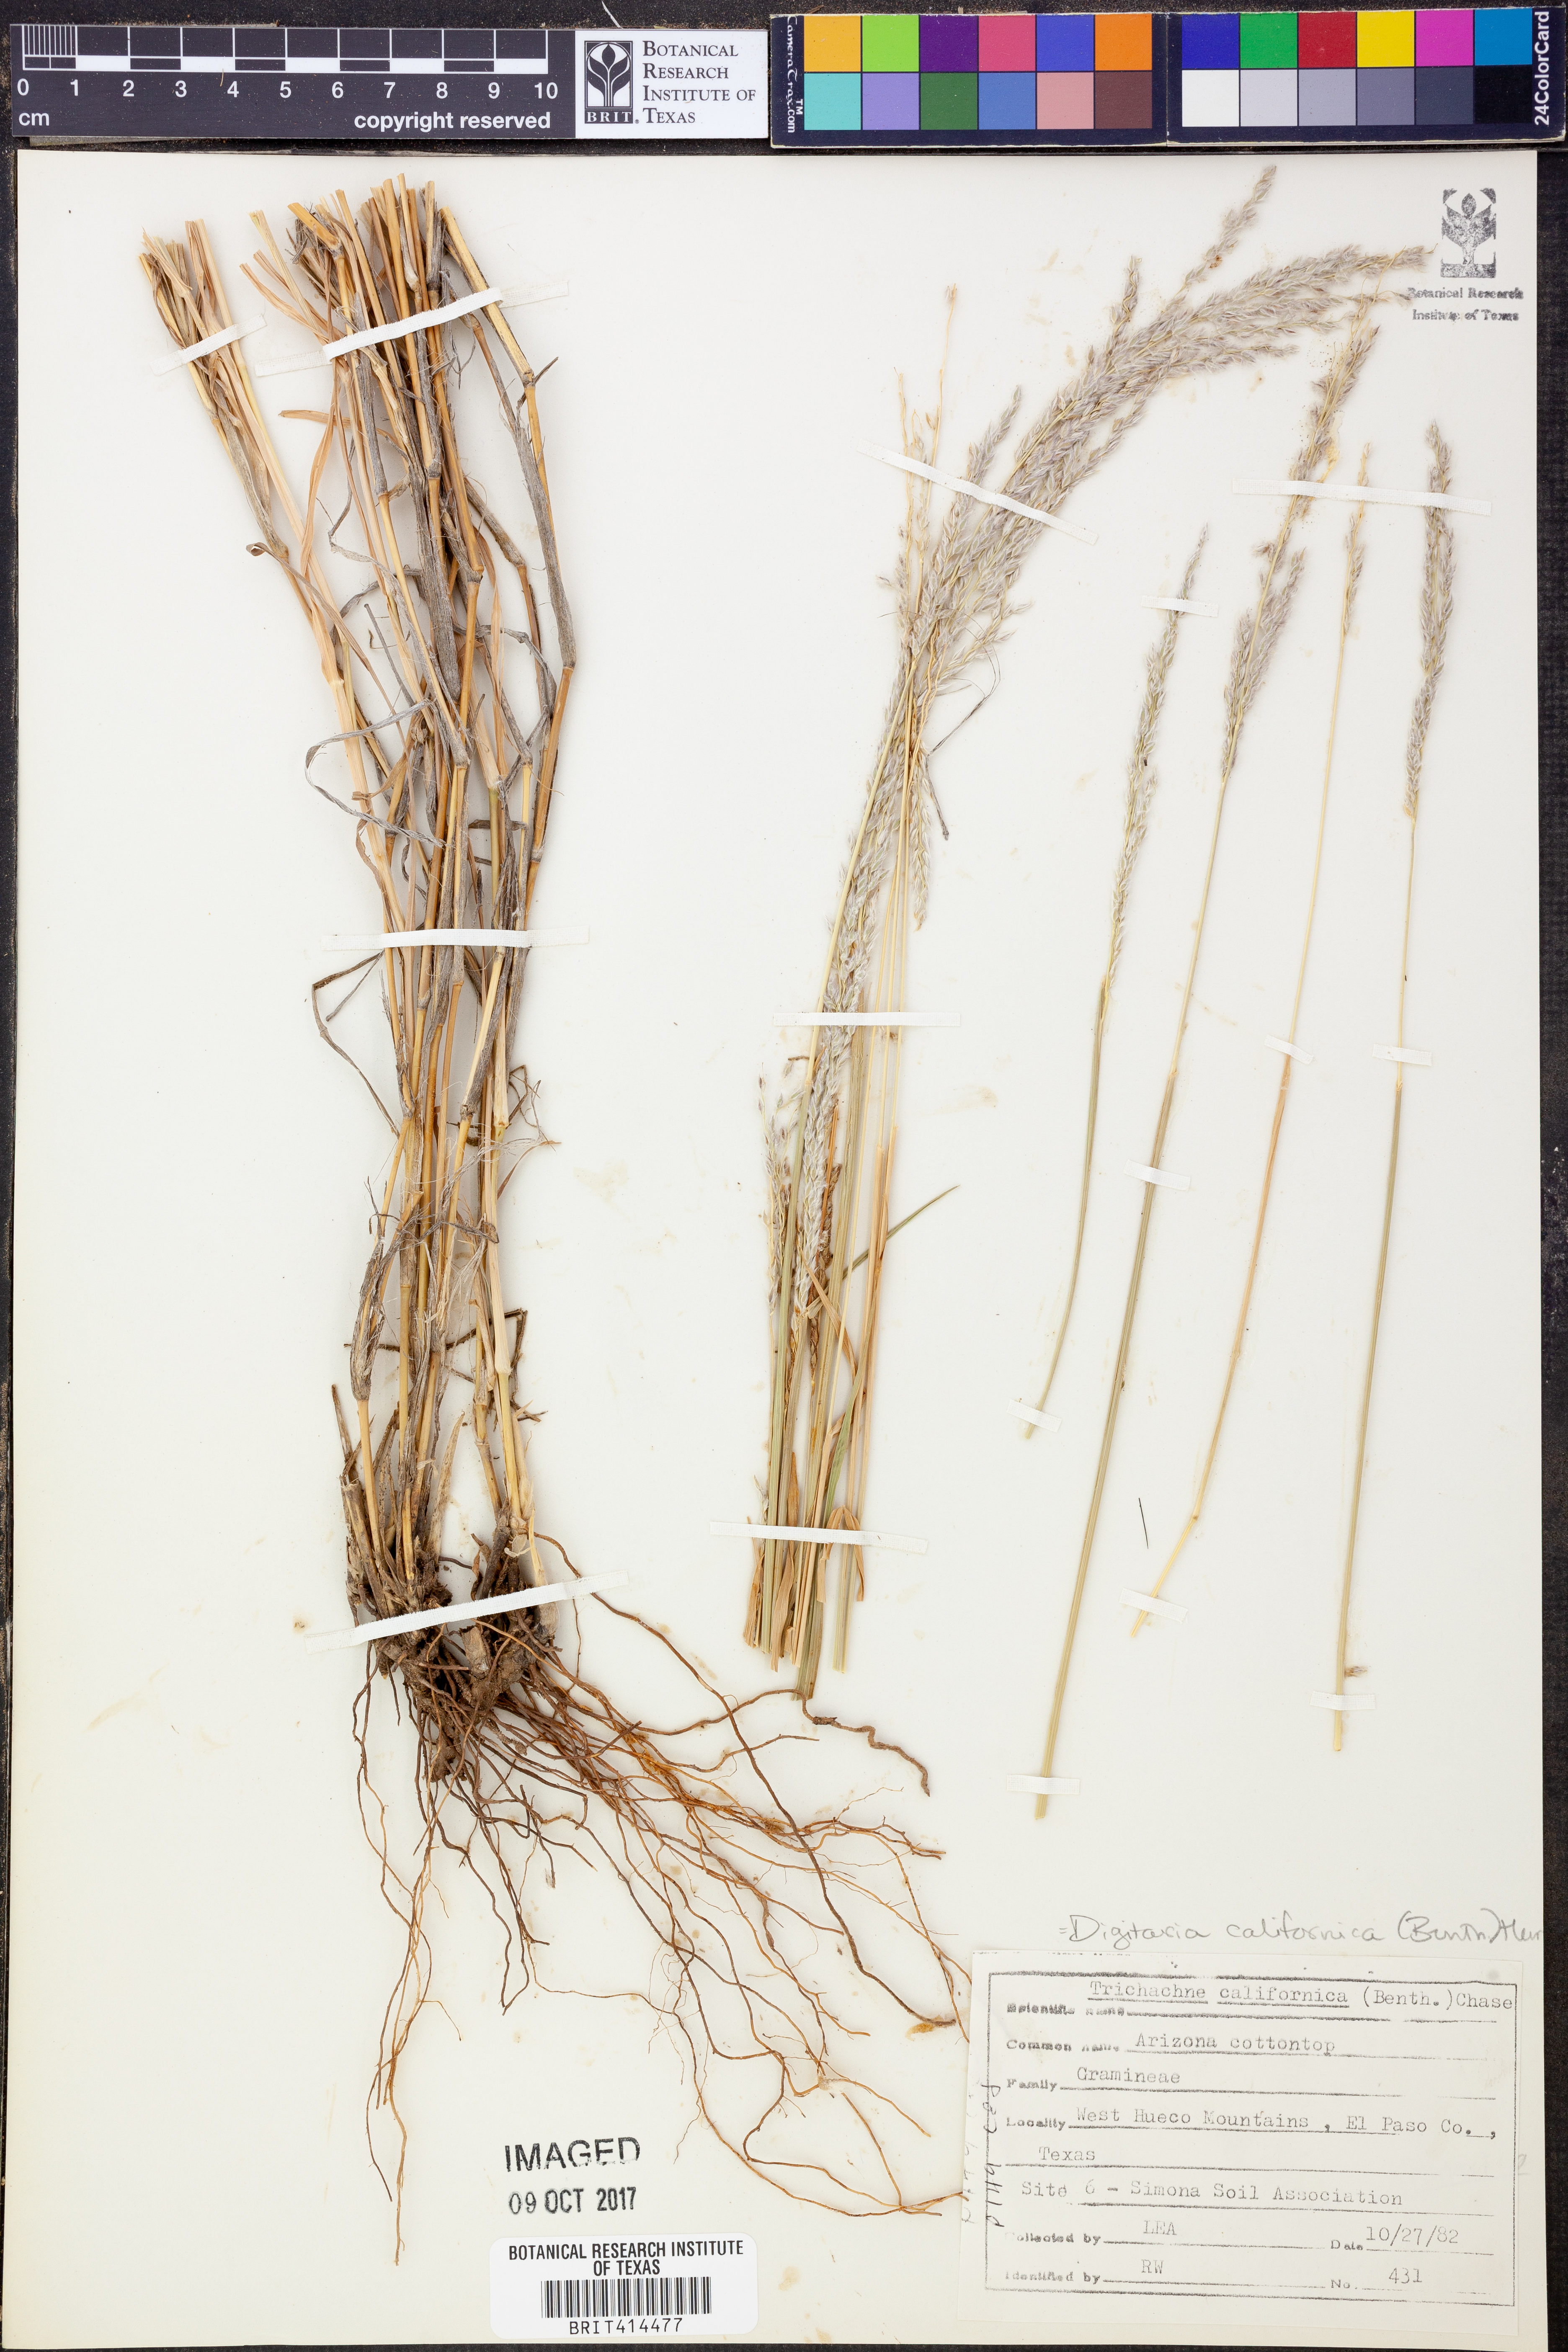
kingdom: Plantae
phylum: Tracheophyta
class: Liliopsida
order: Poales
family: Poaceae
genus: Digitaria
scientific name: Digitaria californica
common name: Arizona cottontop
